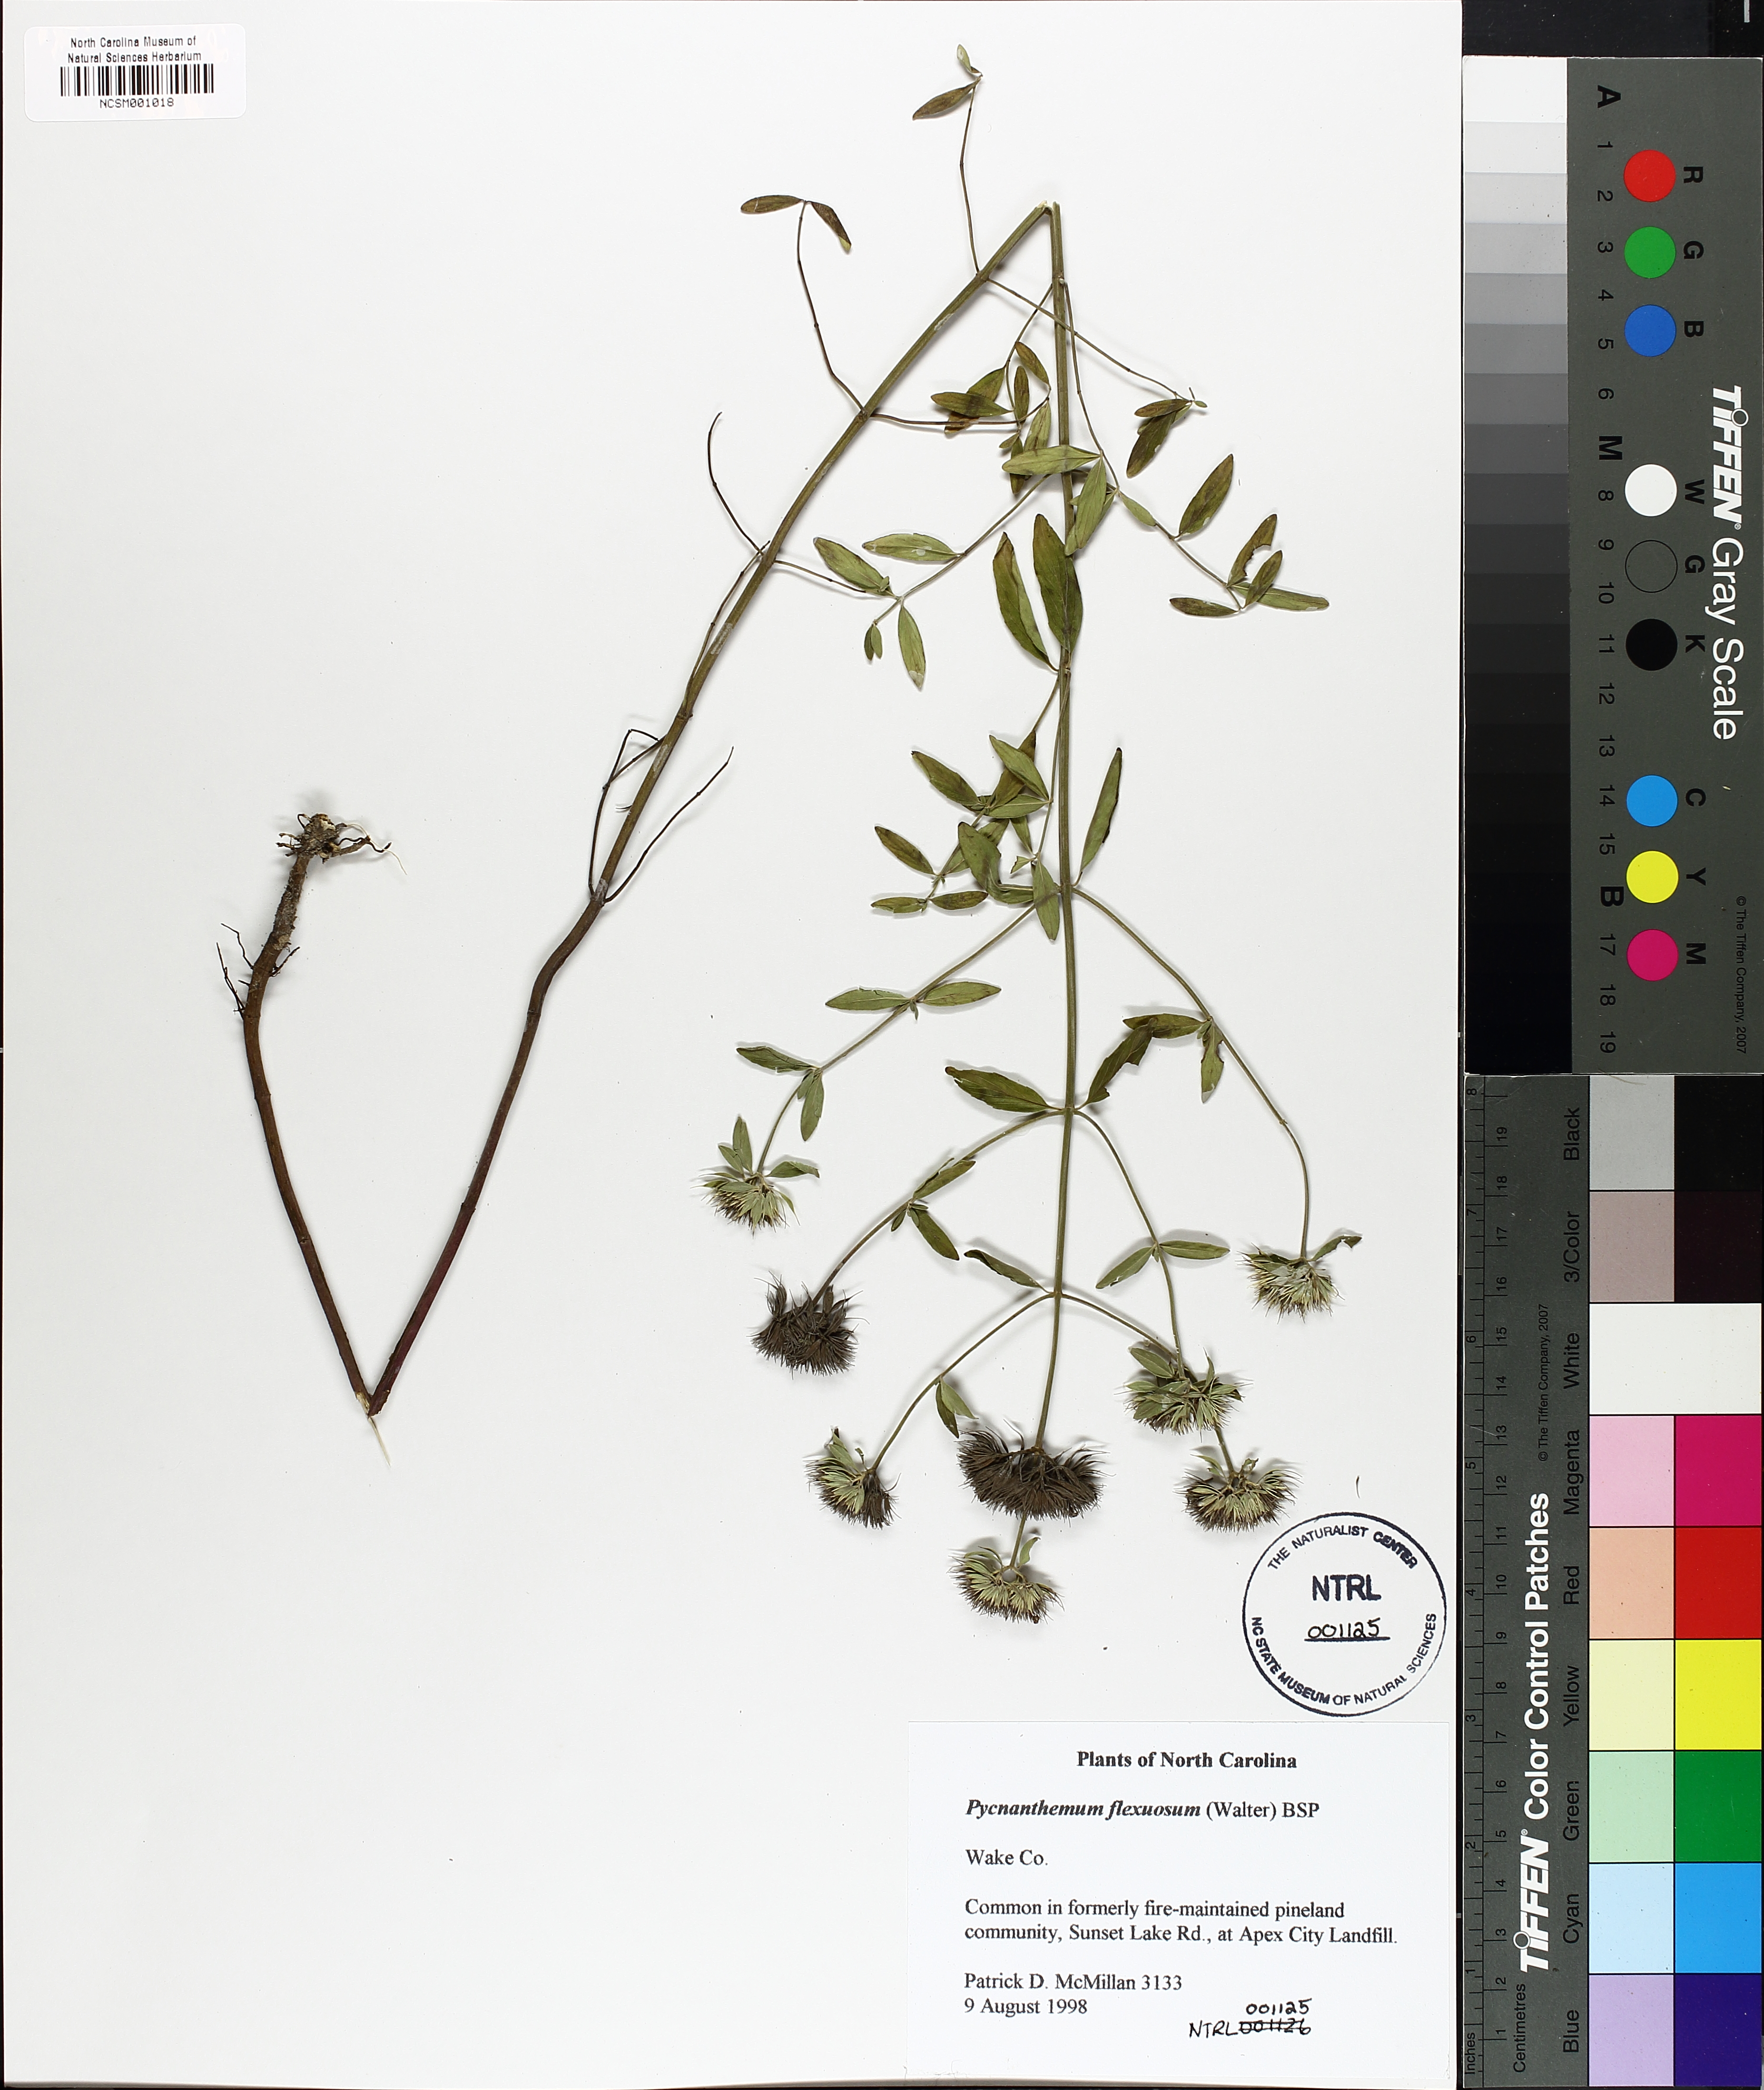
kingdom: Plantae
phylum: Tracheophyta
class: Magnoliopsida
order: Lamiales
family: Lamiaceae
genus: Pycnanthemum
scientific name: Pycnanthemum flexuosum
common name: Appalachian mountain-mint
